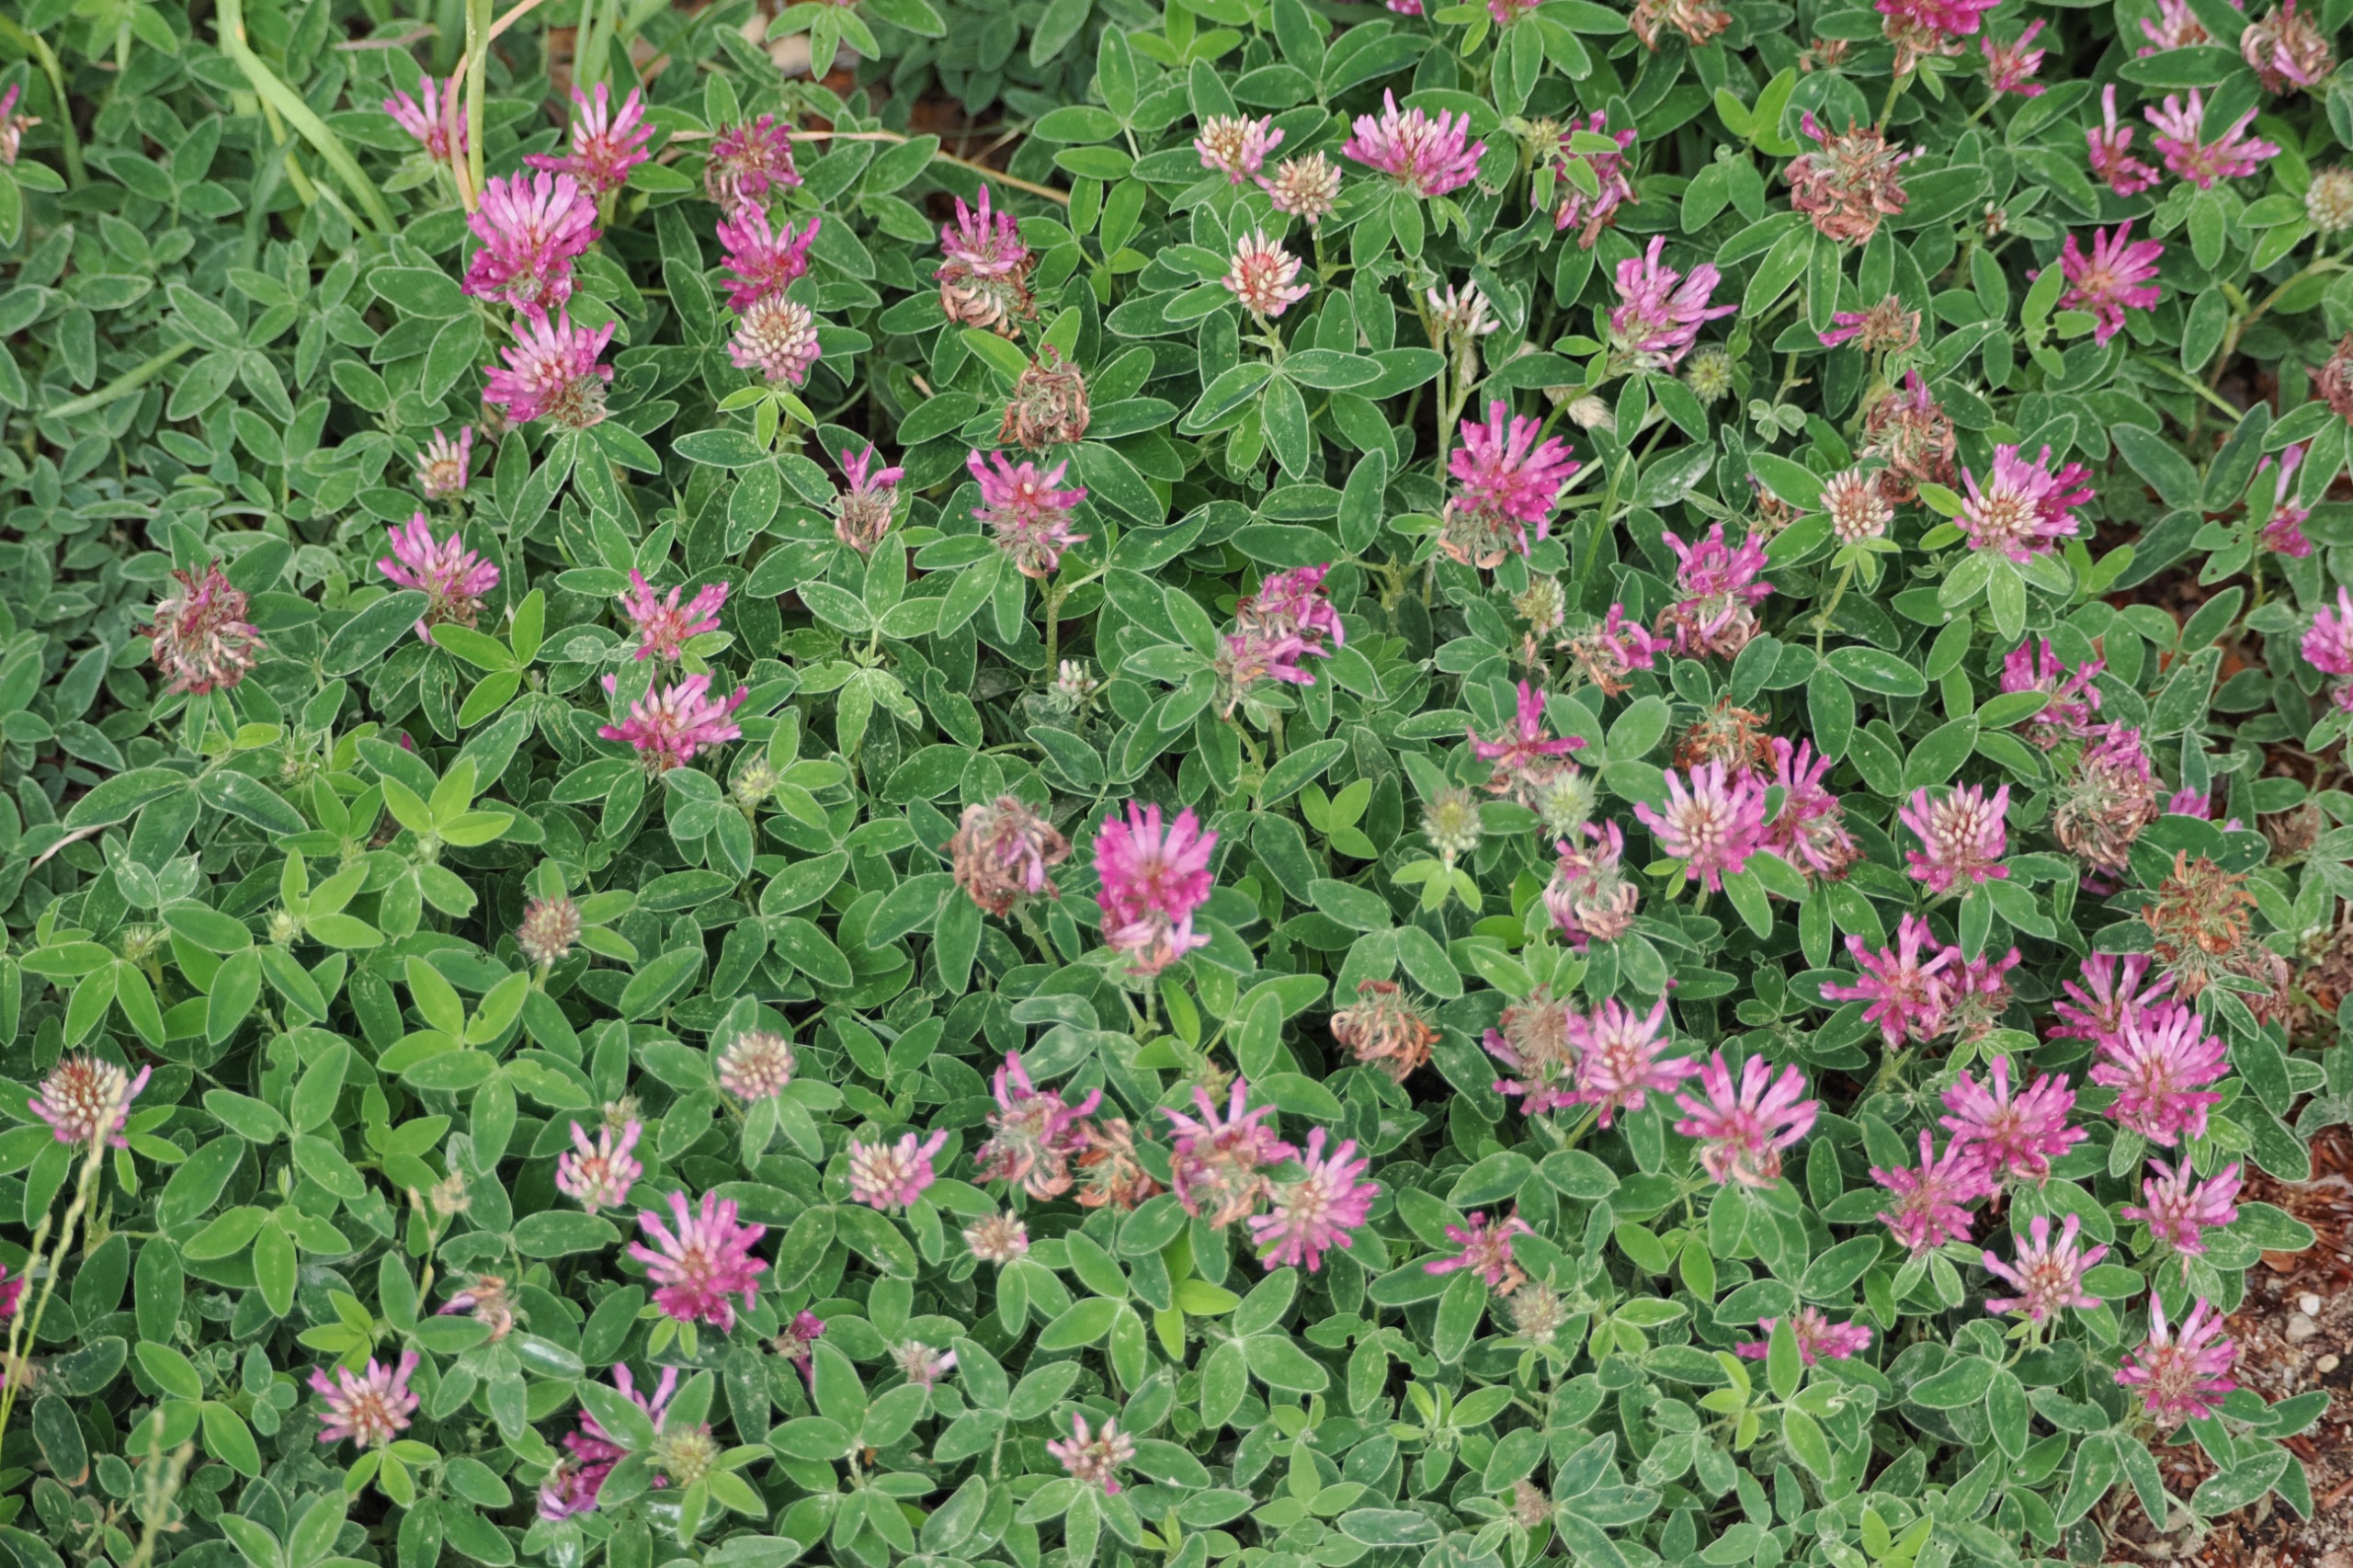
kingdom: Plantae
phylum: Tracheophyta
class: Magnoliopsida
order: Fabales
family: Fabaceae
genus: Trifolium
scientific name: Trifolium medium
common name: Bugtet kløver
